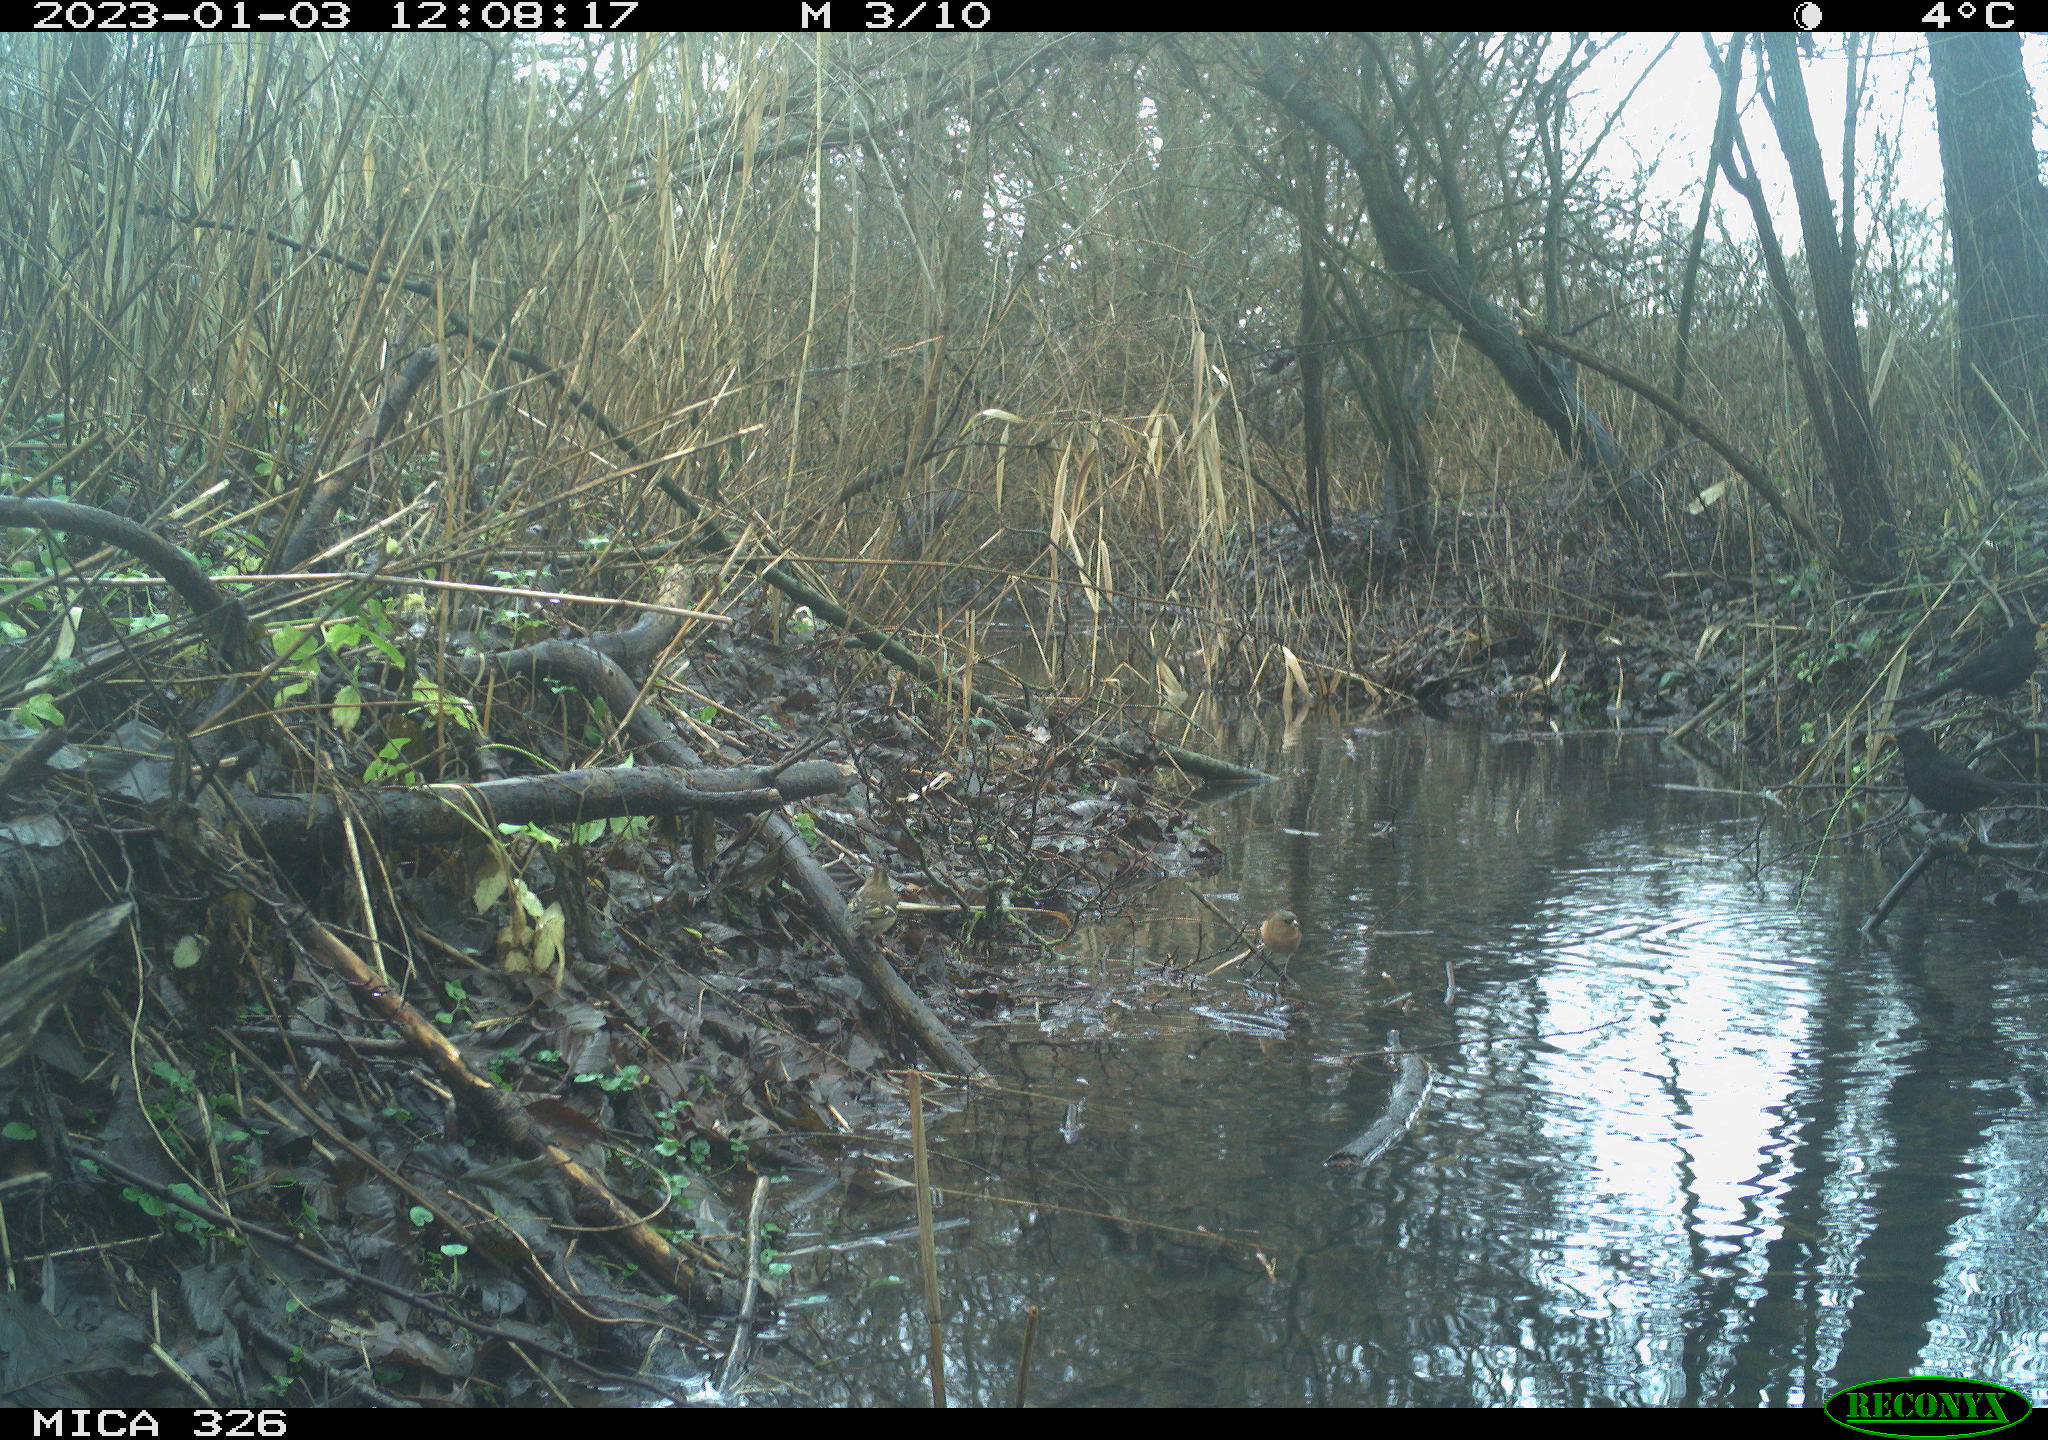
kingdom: Animalia
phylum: Chordata
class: Aves
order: Passeriformes
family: Fringillidae
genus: Fringilla
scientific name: Fringilla coelebs
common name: Common chaffinch
